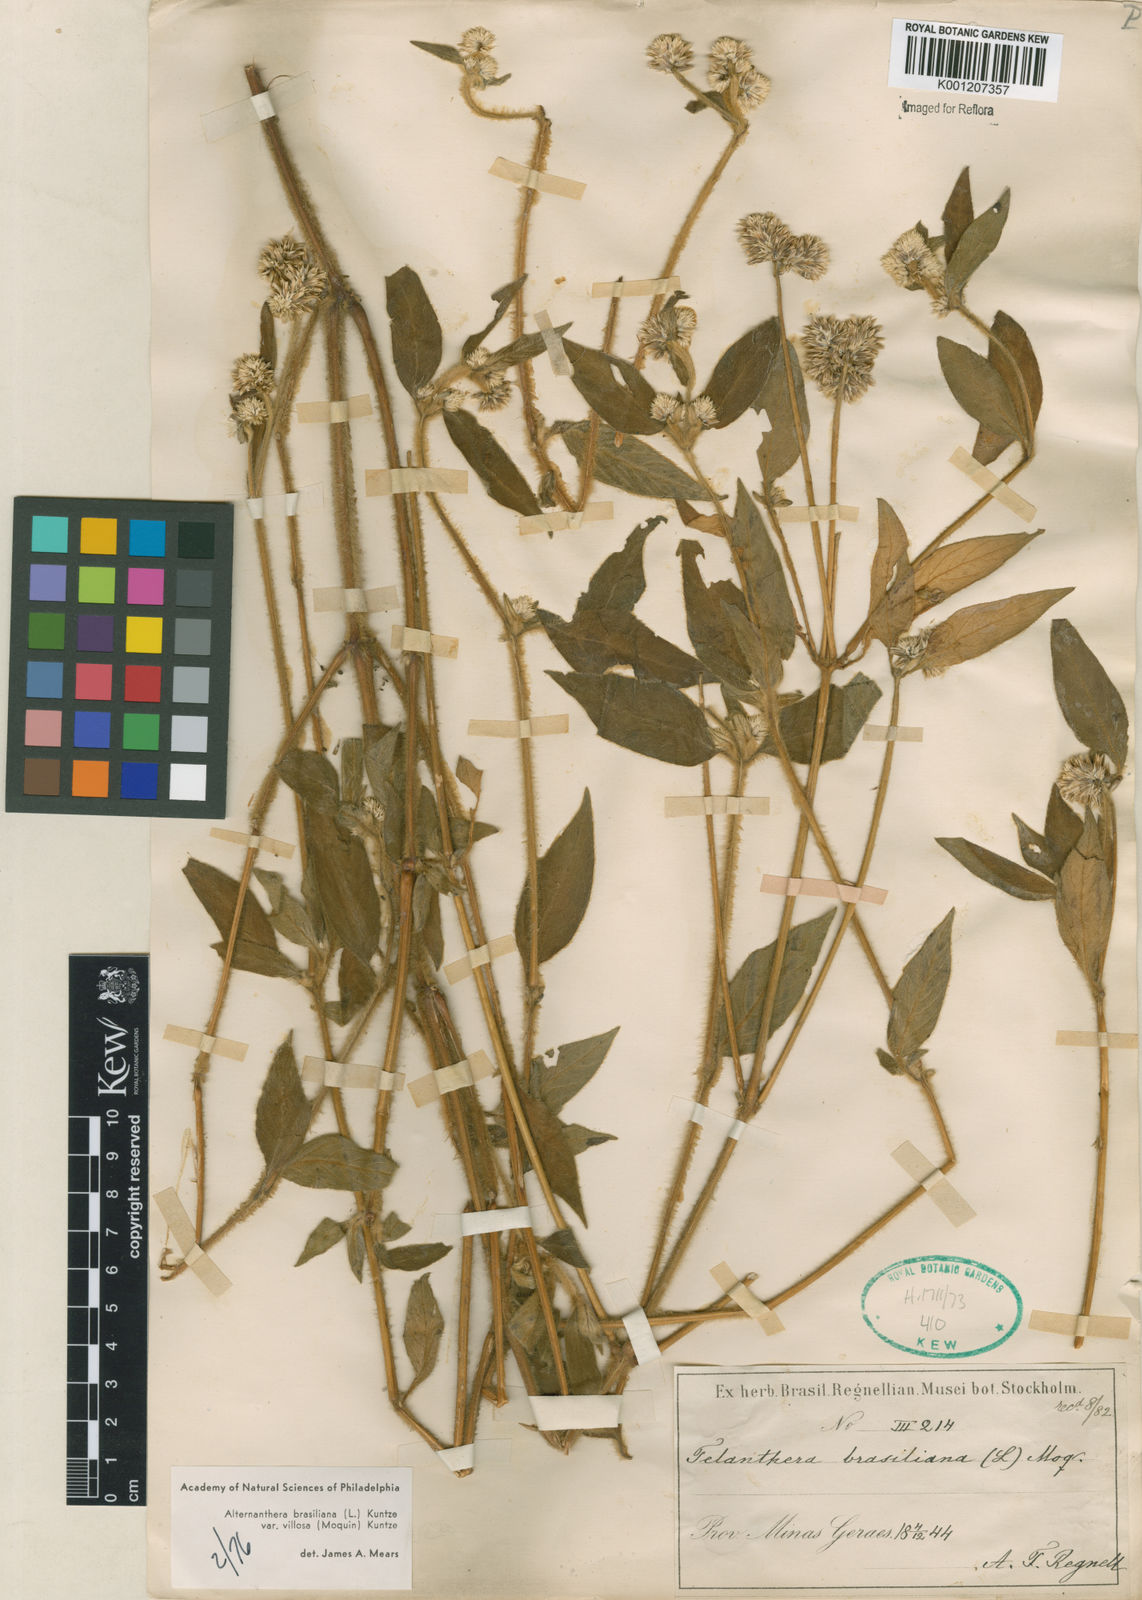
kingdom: Plantae
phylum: Tracheophyta
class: Magnoliopsida
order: Caryophyllales
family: Amaranthaceae
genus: Alternanthera
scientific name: Alternanthera brasiliana
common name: Brazilian joyweed
